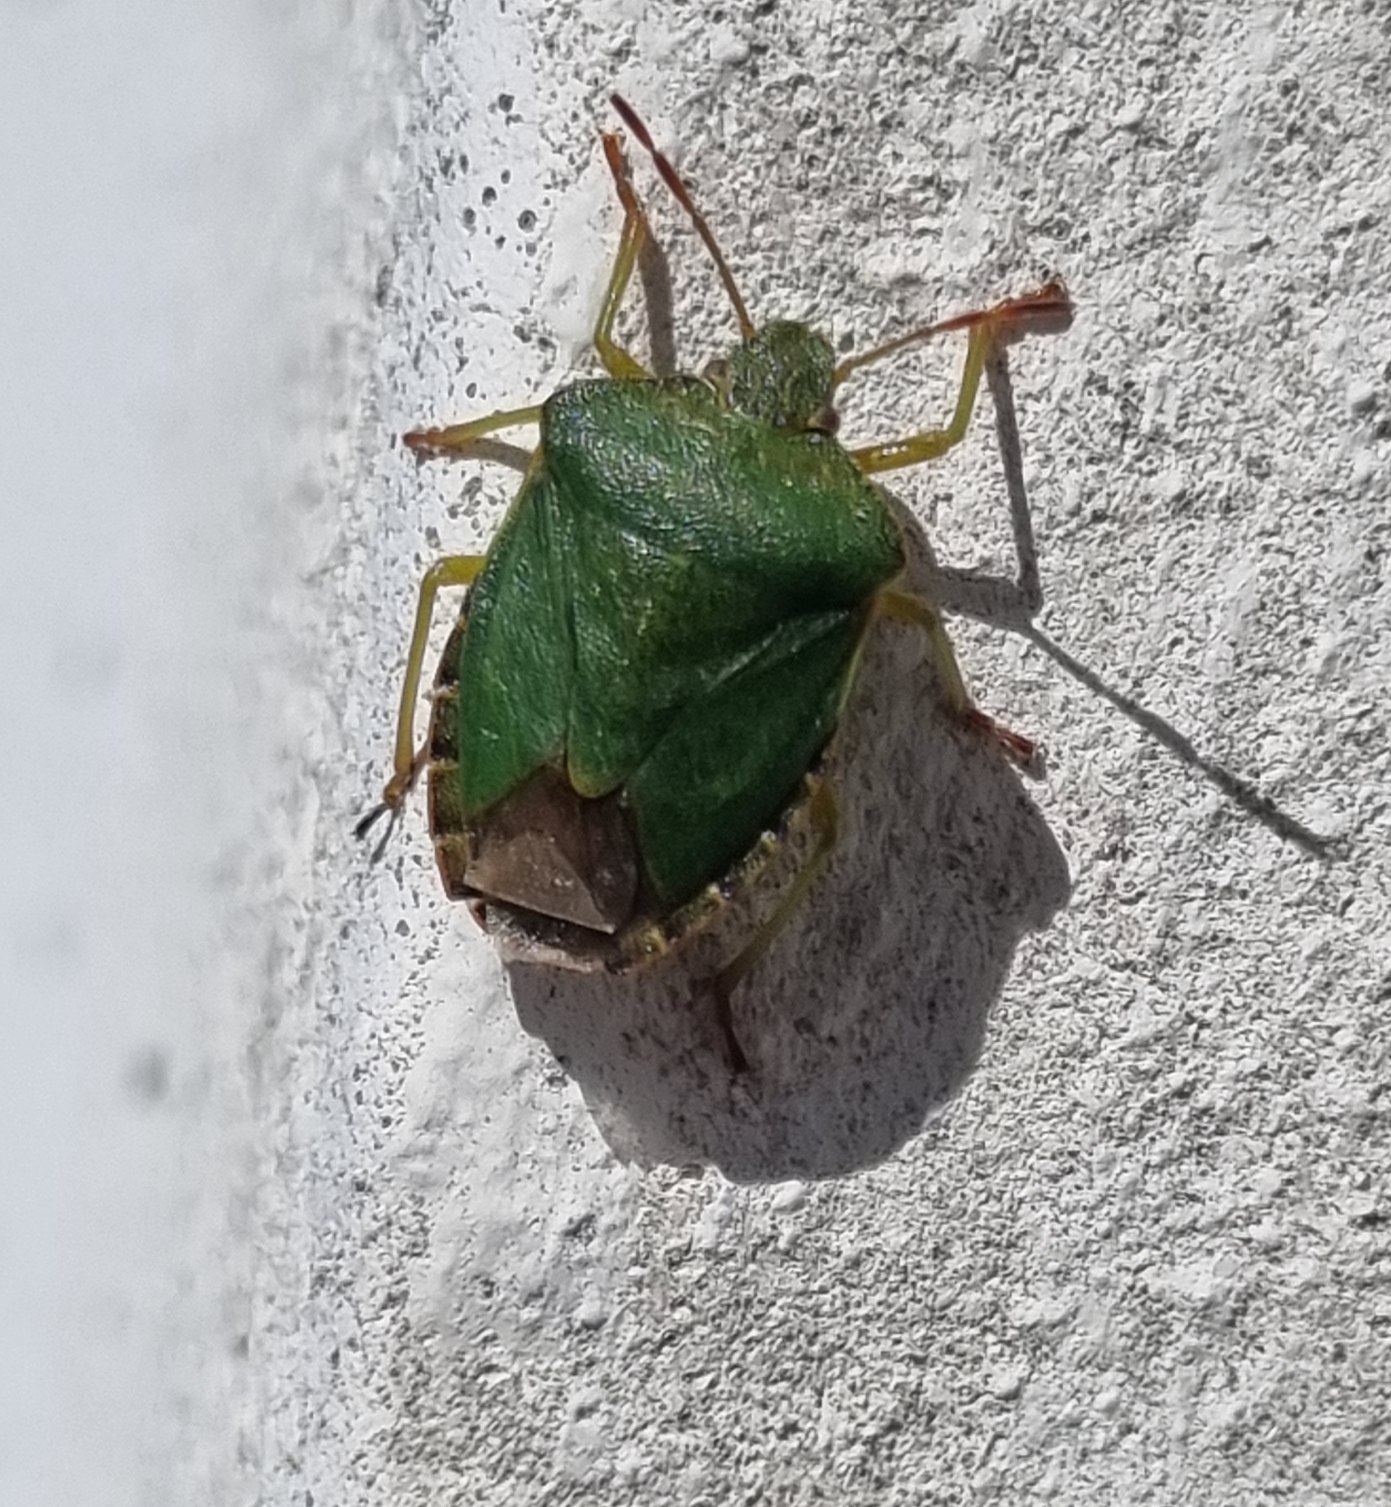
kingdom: Animalia
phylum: Arthropoda
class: Insecta
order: Hemiptera
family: Pentatomidae
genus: Palomena
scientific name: Palomena prasina
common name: Grøn bredtæge
